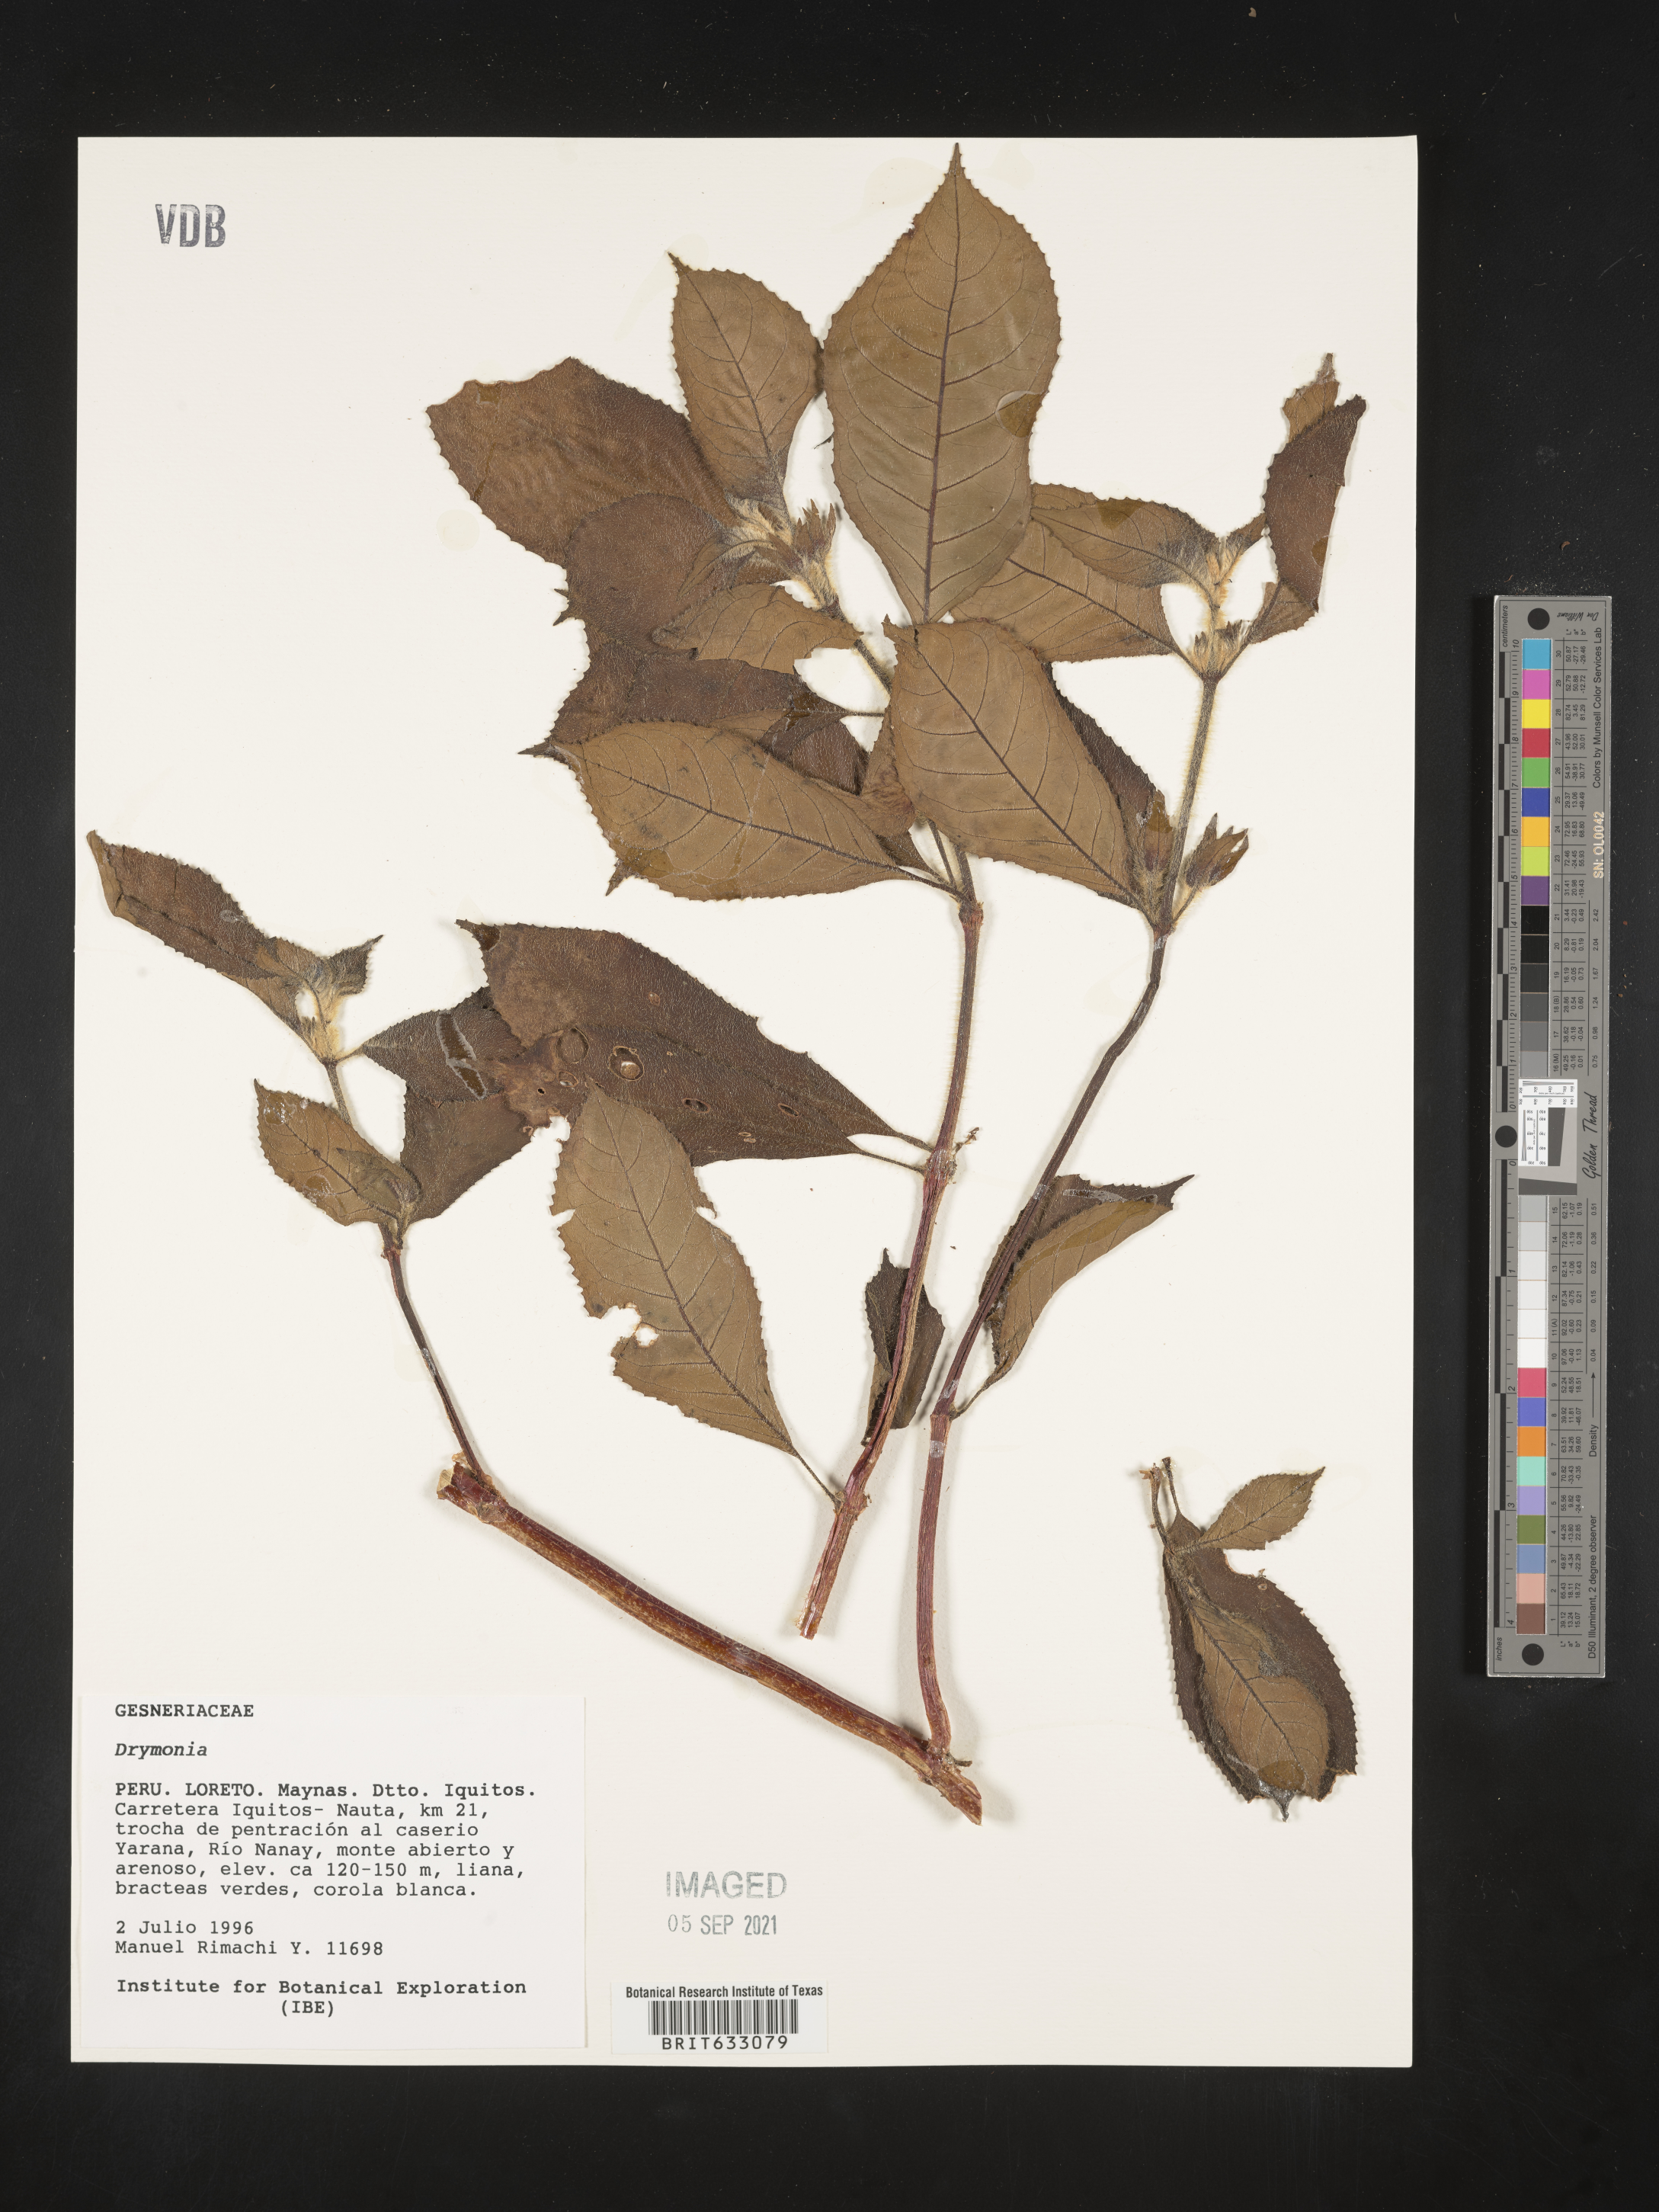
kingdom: Plantae
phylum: Tracheophyta
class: Magnoliopsida
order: Lamiales
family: Gesneriaceae
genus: Drymonia
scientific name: Drymonia
